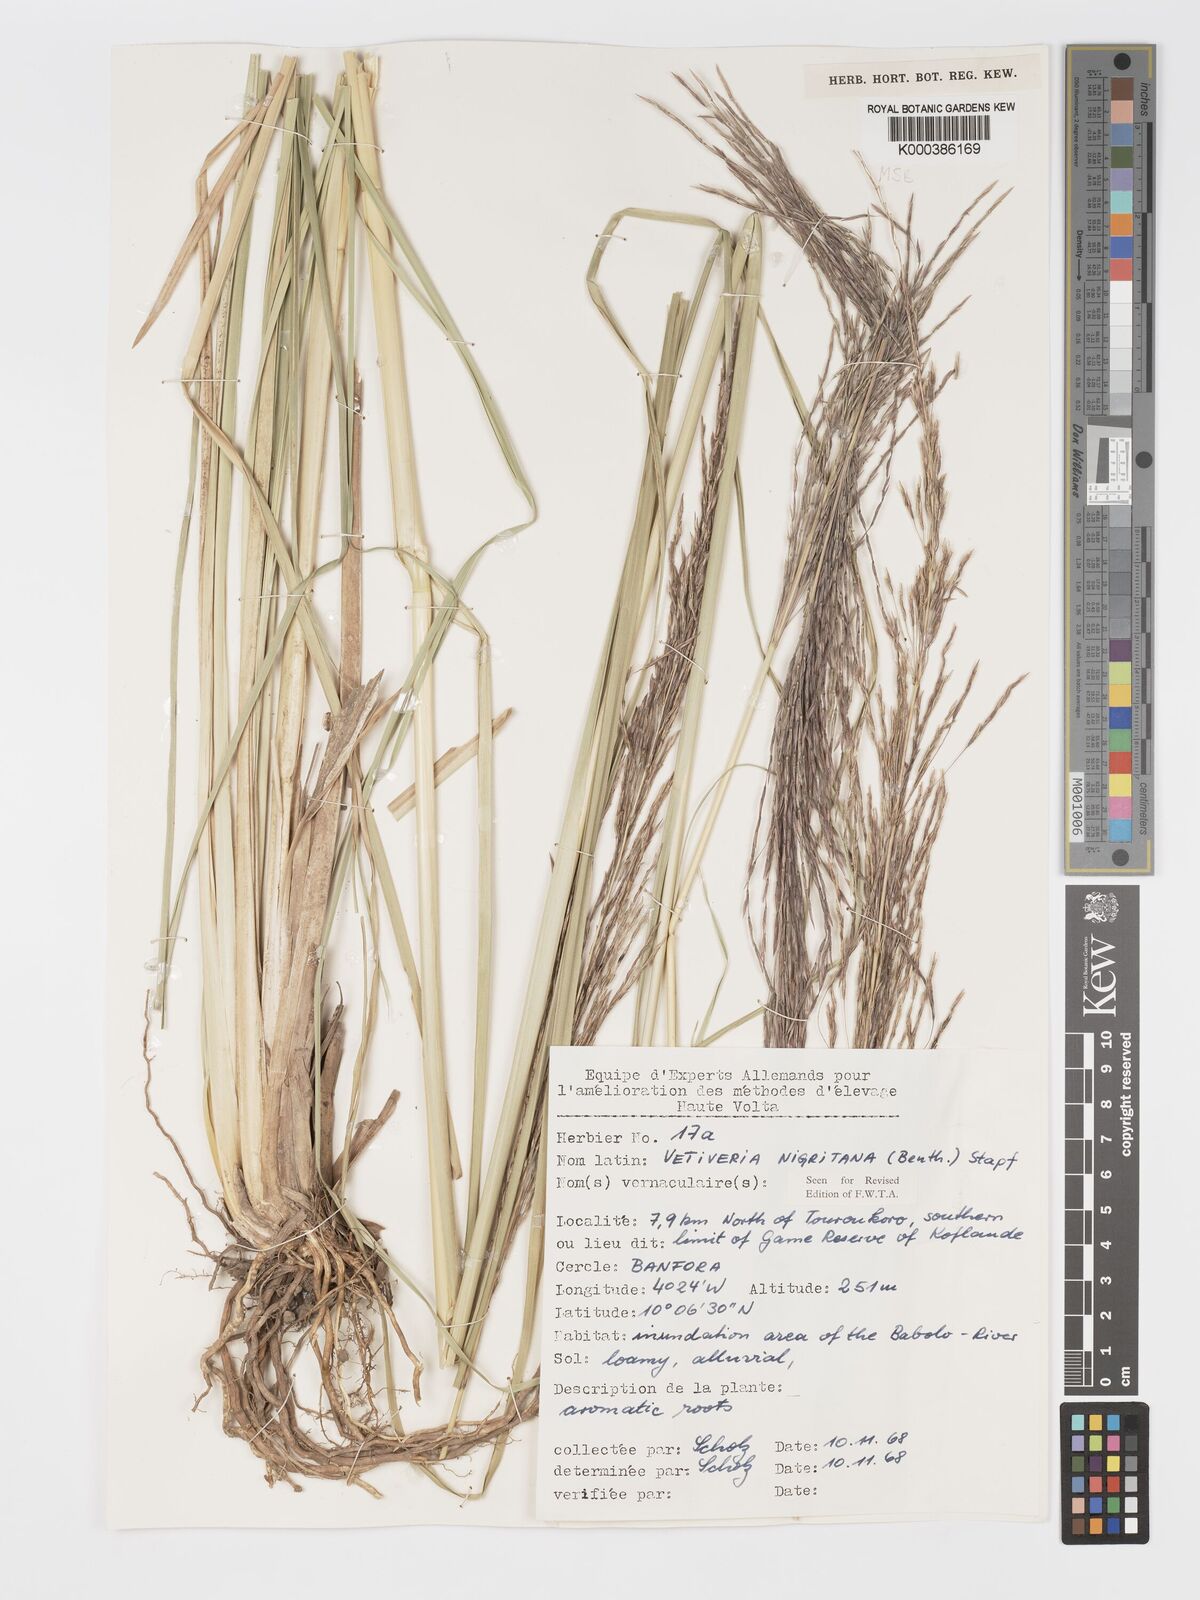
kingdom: Plantae
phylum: Tracheophyta
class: Liliopsida
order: Poales
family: Poaceae
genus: Chrysopogon
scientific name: Chrysopogon nigritanus
